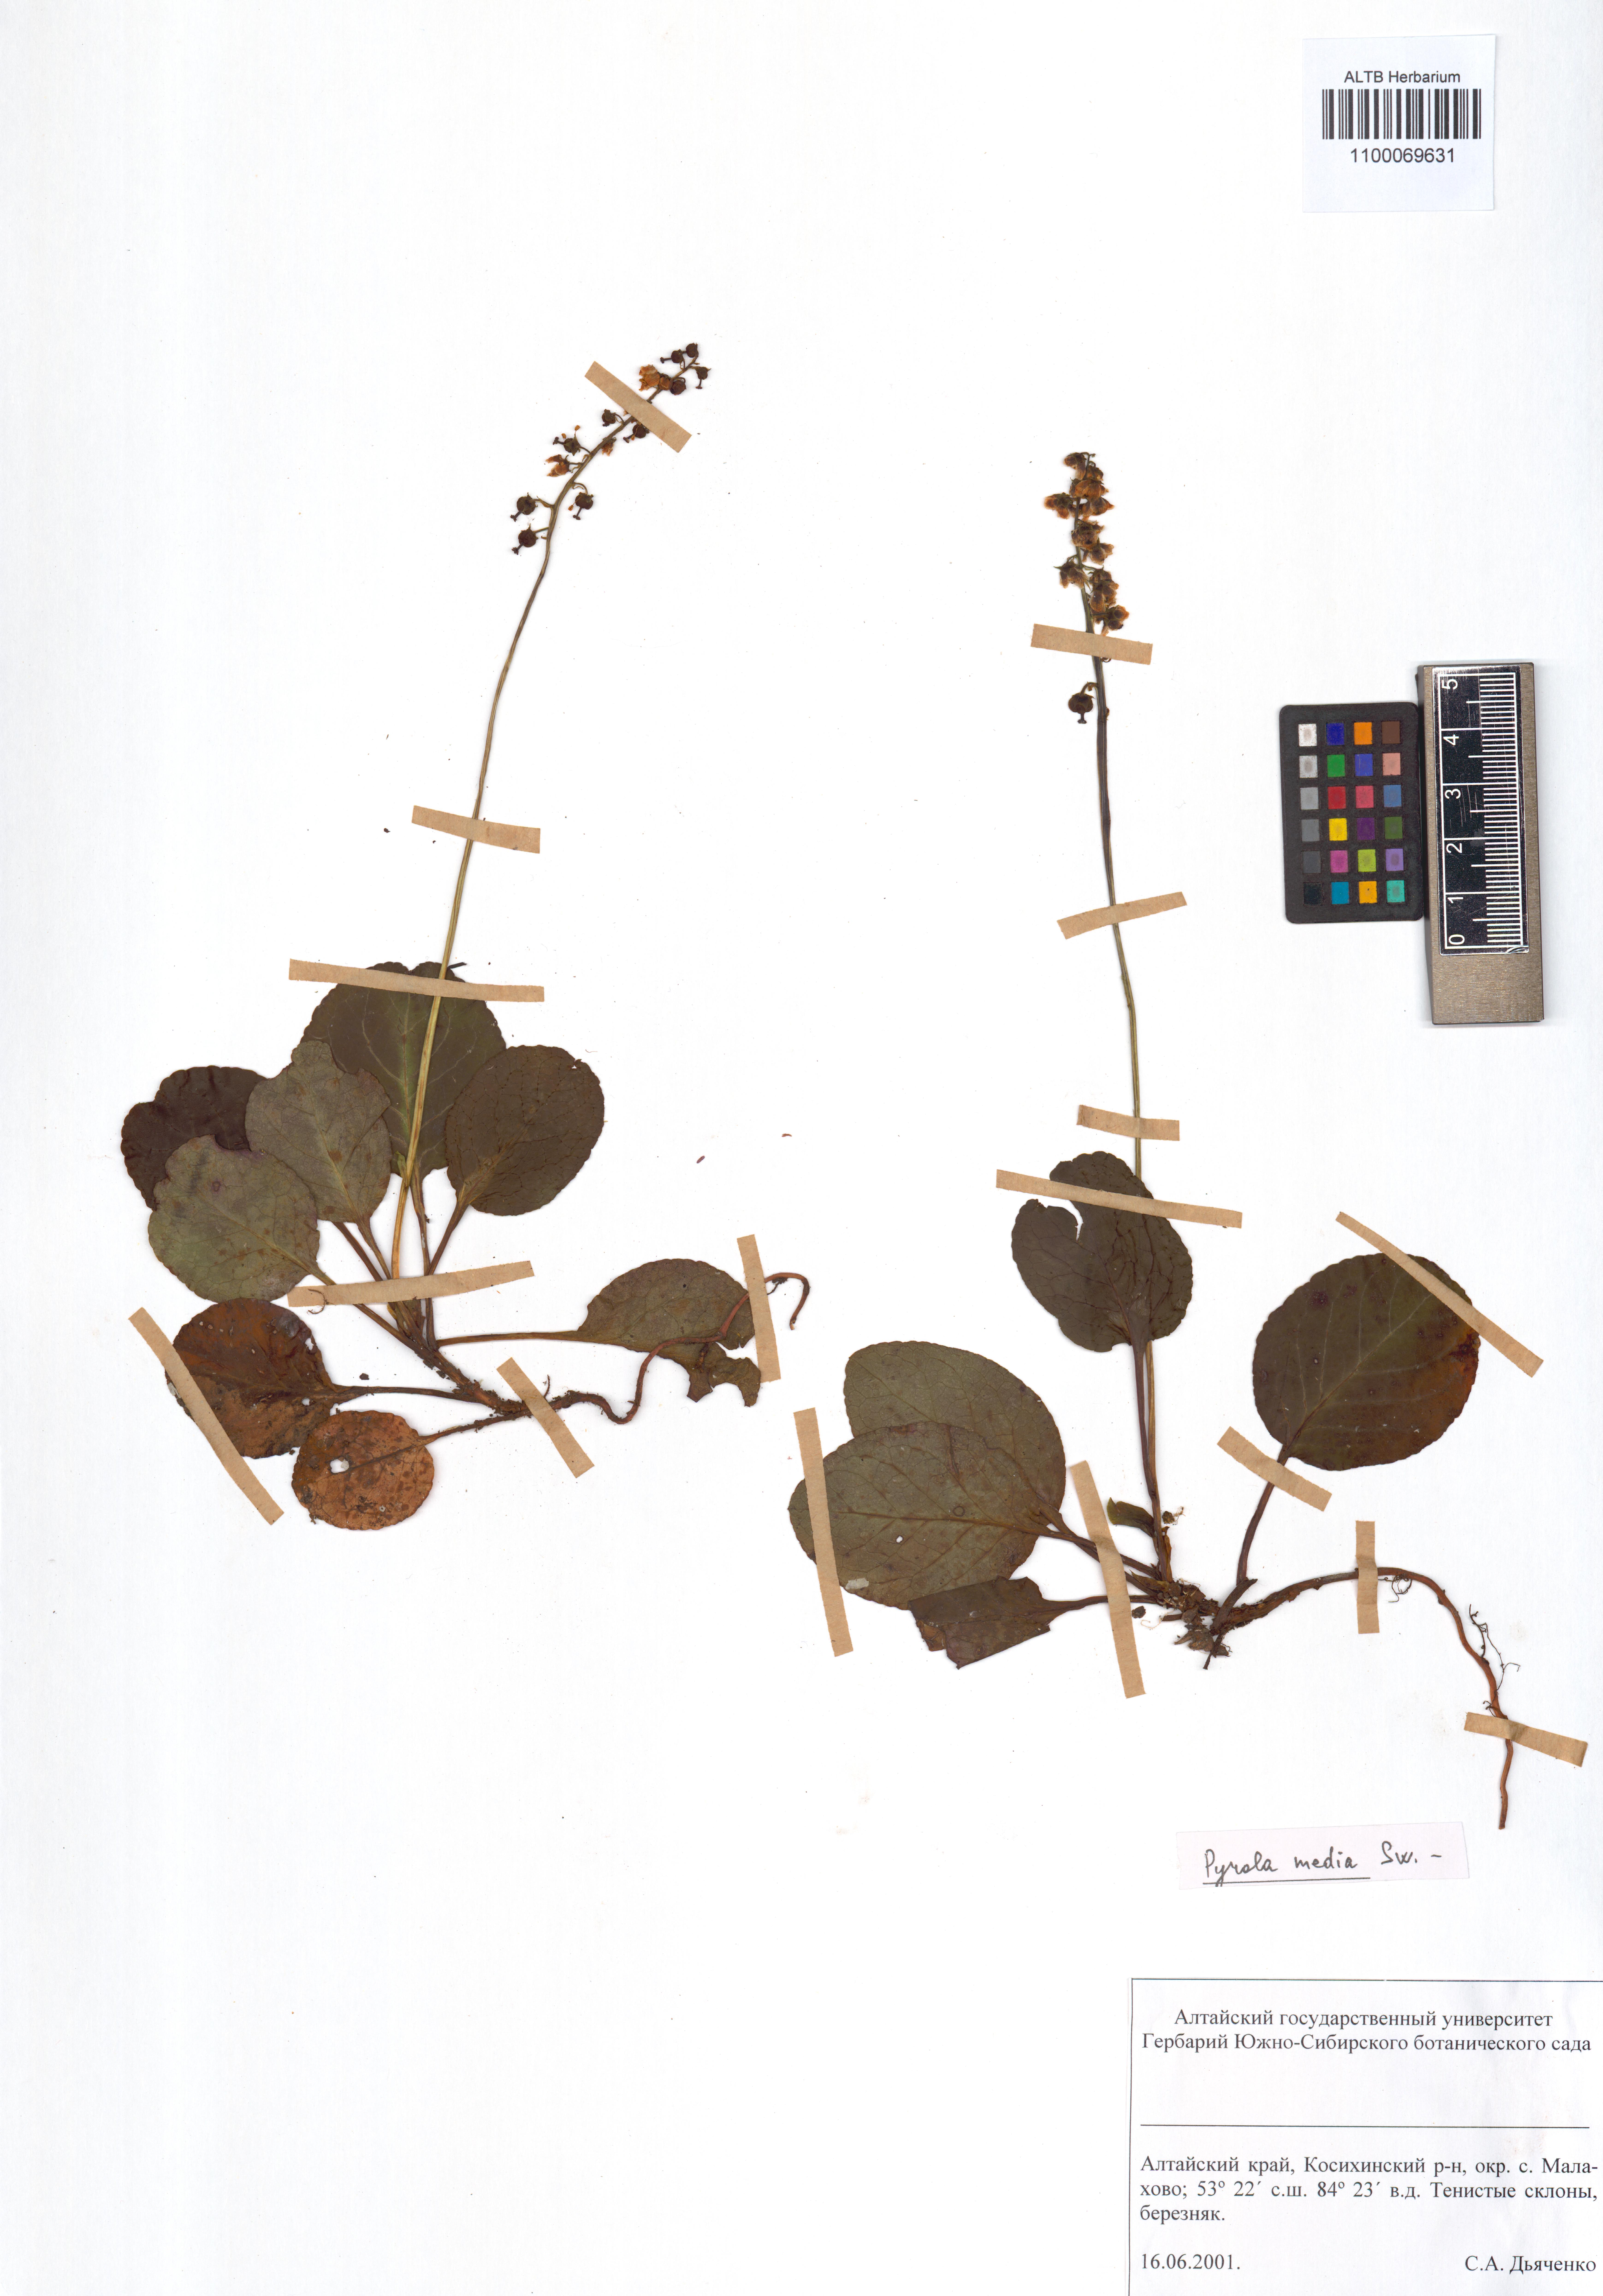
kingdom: Plantae
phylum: Tracheophyta
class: Magnoliopsida
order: Ericales
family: Ericaceae
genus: Pyrola
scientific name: Pyrola media
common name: Intermediate wintergreen
